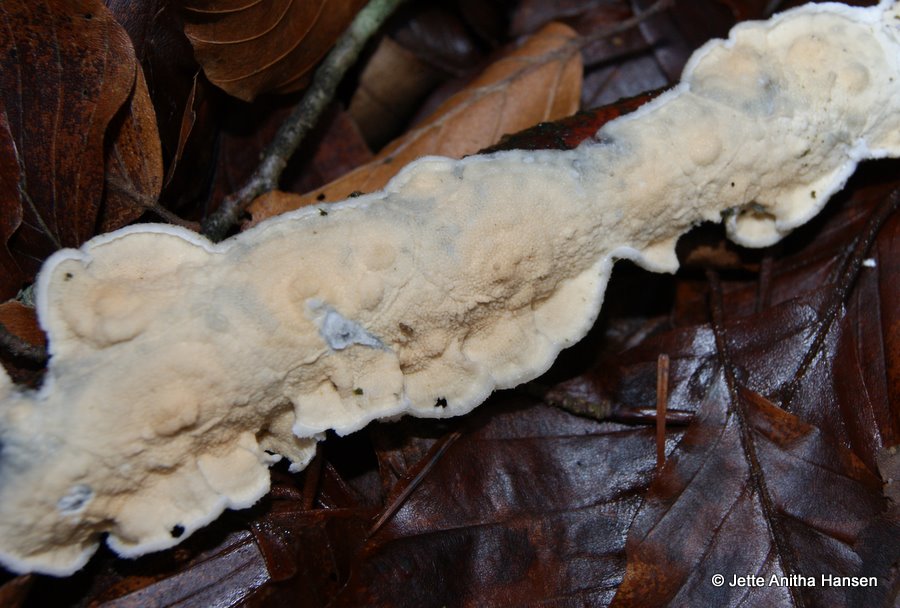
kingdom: Fungi
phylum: Basidiomycota
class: Agaricomycetes
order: Polyporales
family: Irpicaceae
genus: Byssomerulius
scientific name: Byssomerulius corium
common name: læder-åresvamp
